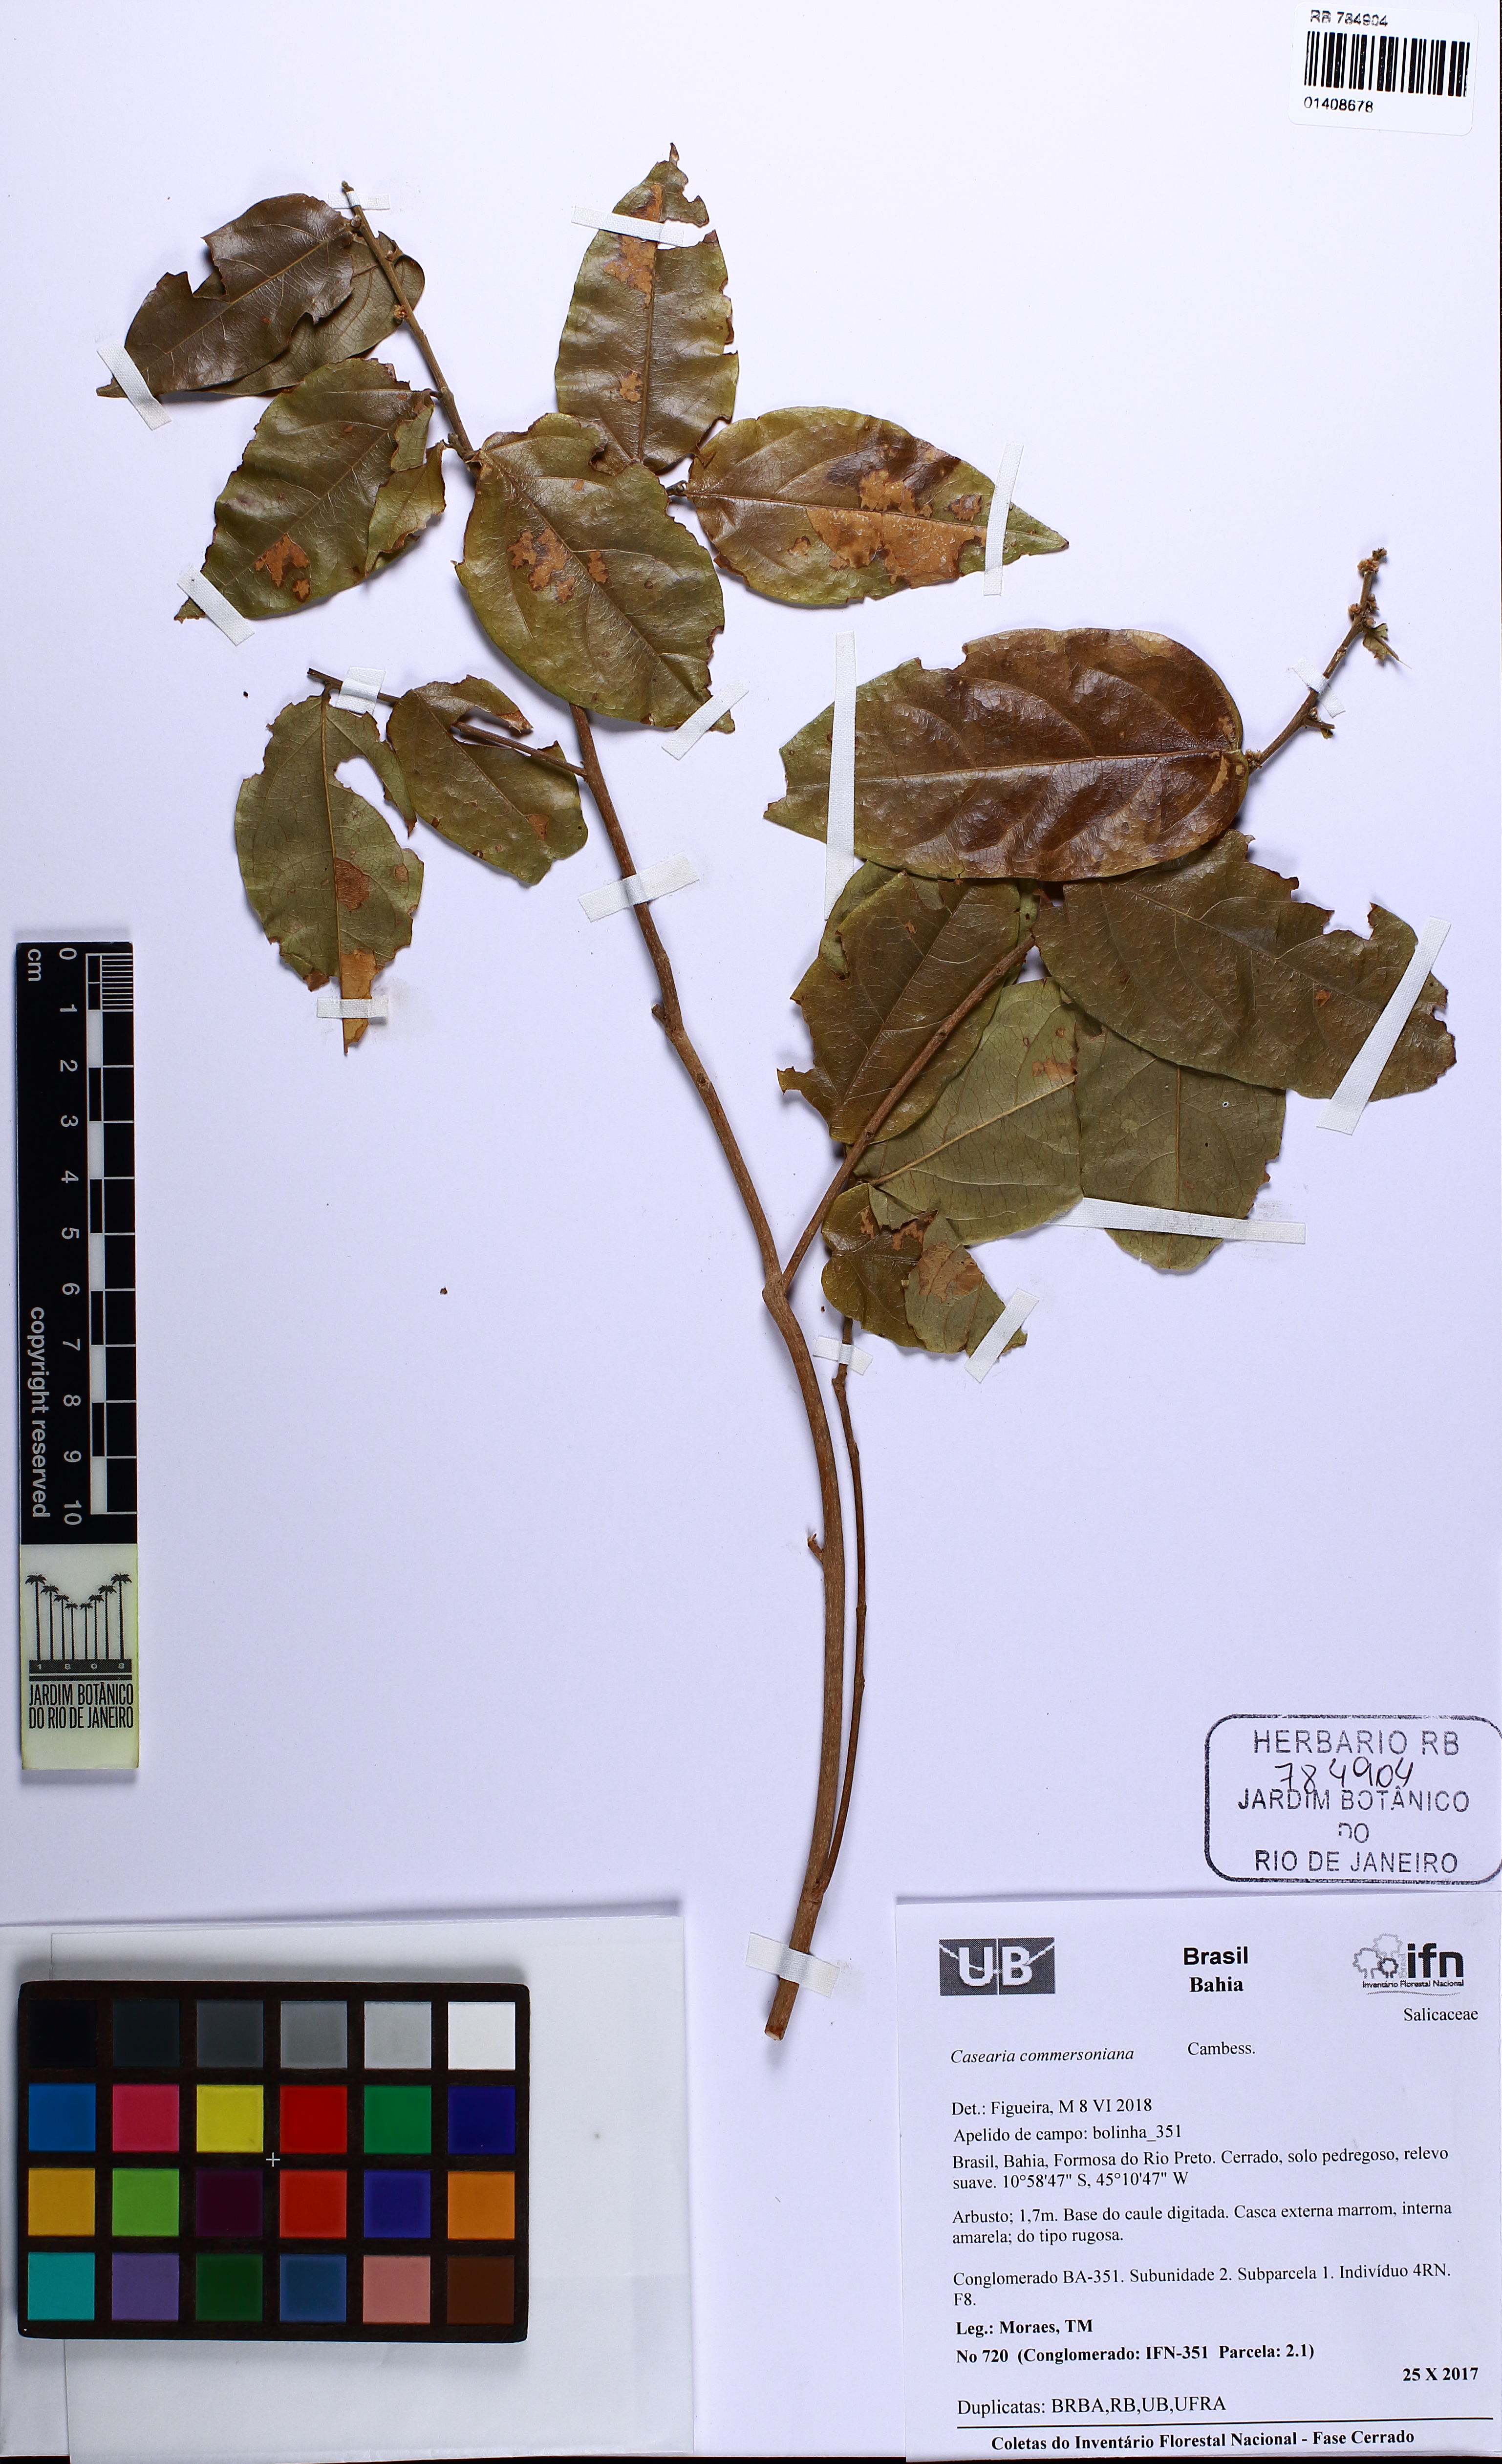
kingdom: Plantae
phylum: Tracheophyta
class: Magnoliopsida
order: Malpighiales
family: Salicaceae
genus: Piparea
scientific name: Piparea dentata
